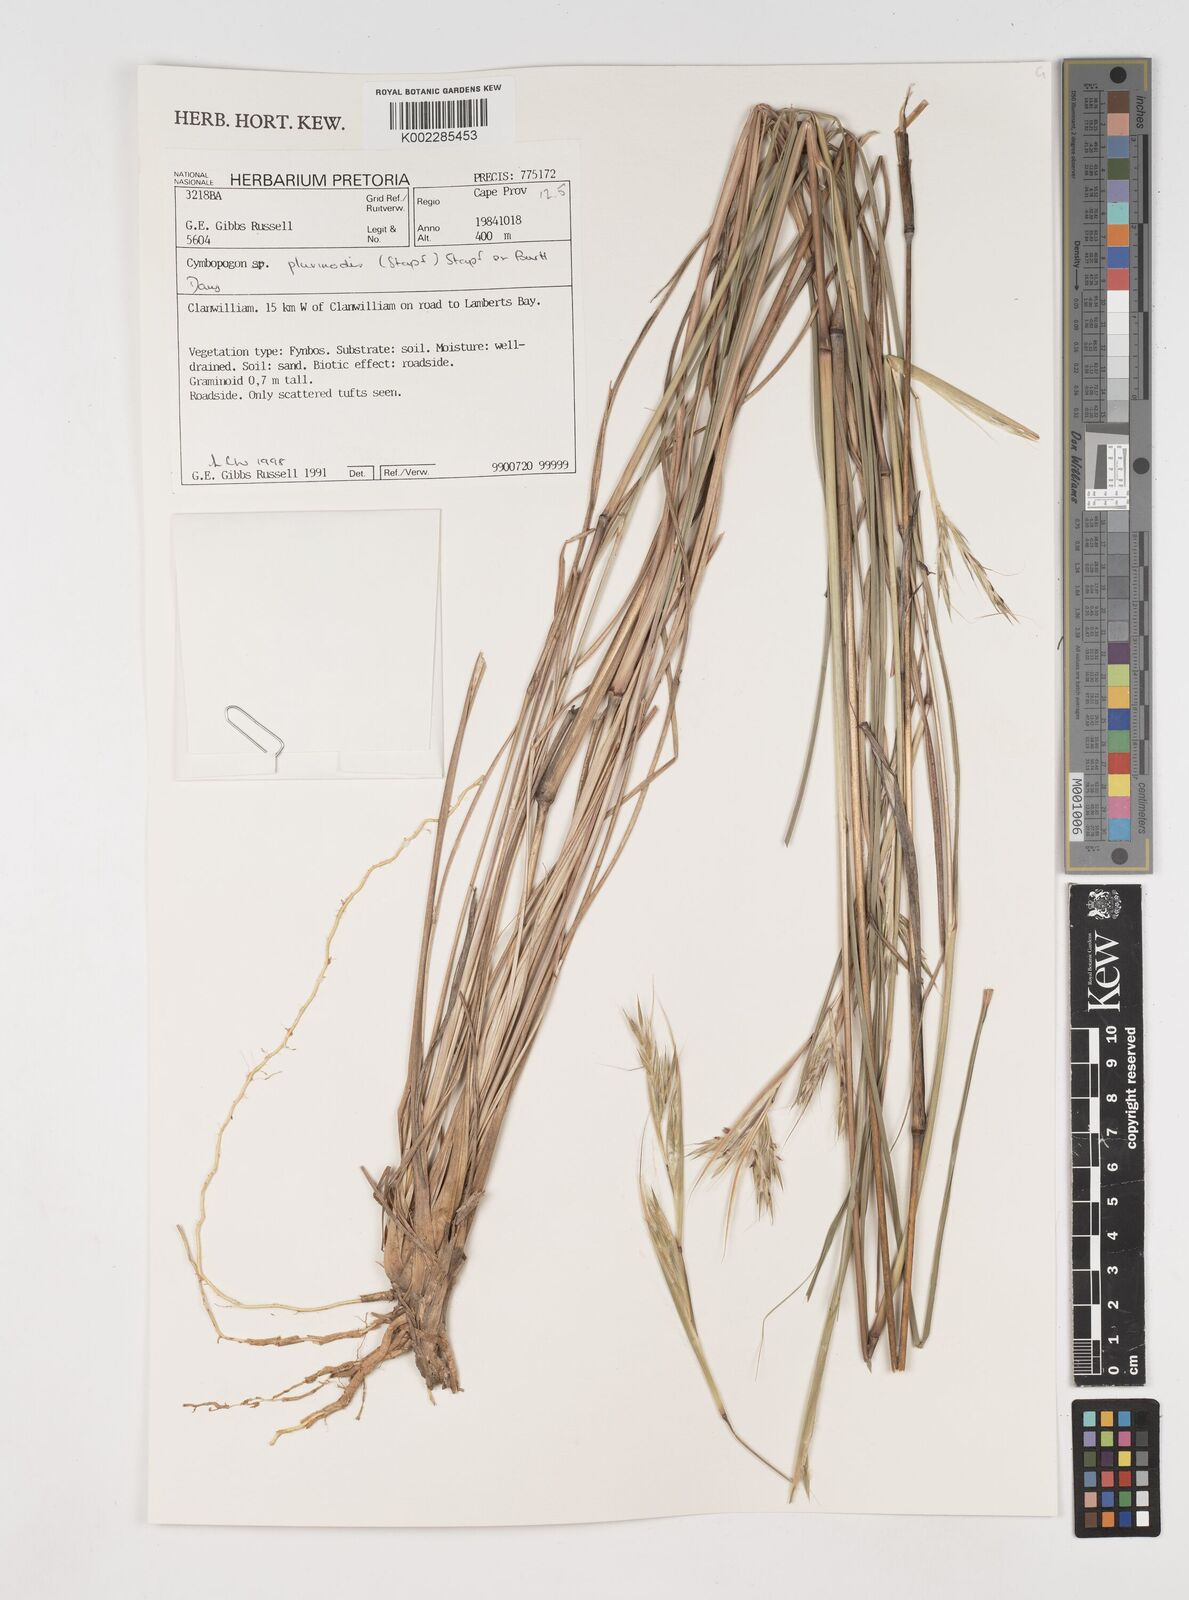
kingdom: Plantae
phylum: Tracheophyta
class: Liliopsida
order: Poales
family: Poaceae
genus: Cymbopogon
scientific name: Cymbopogon pospischilii
